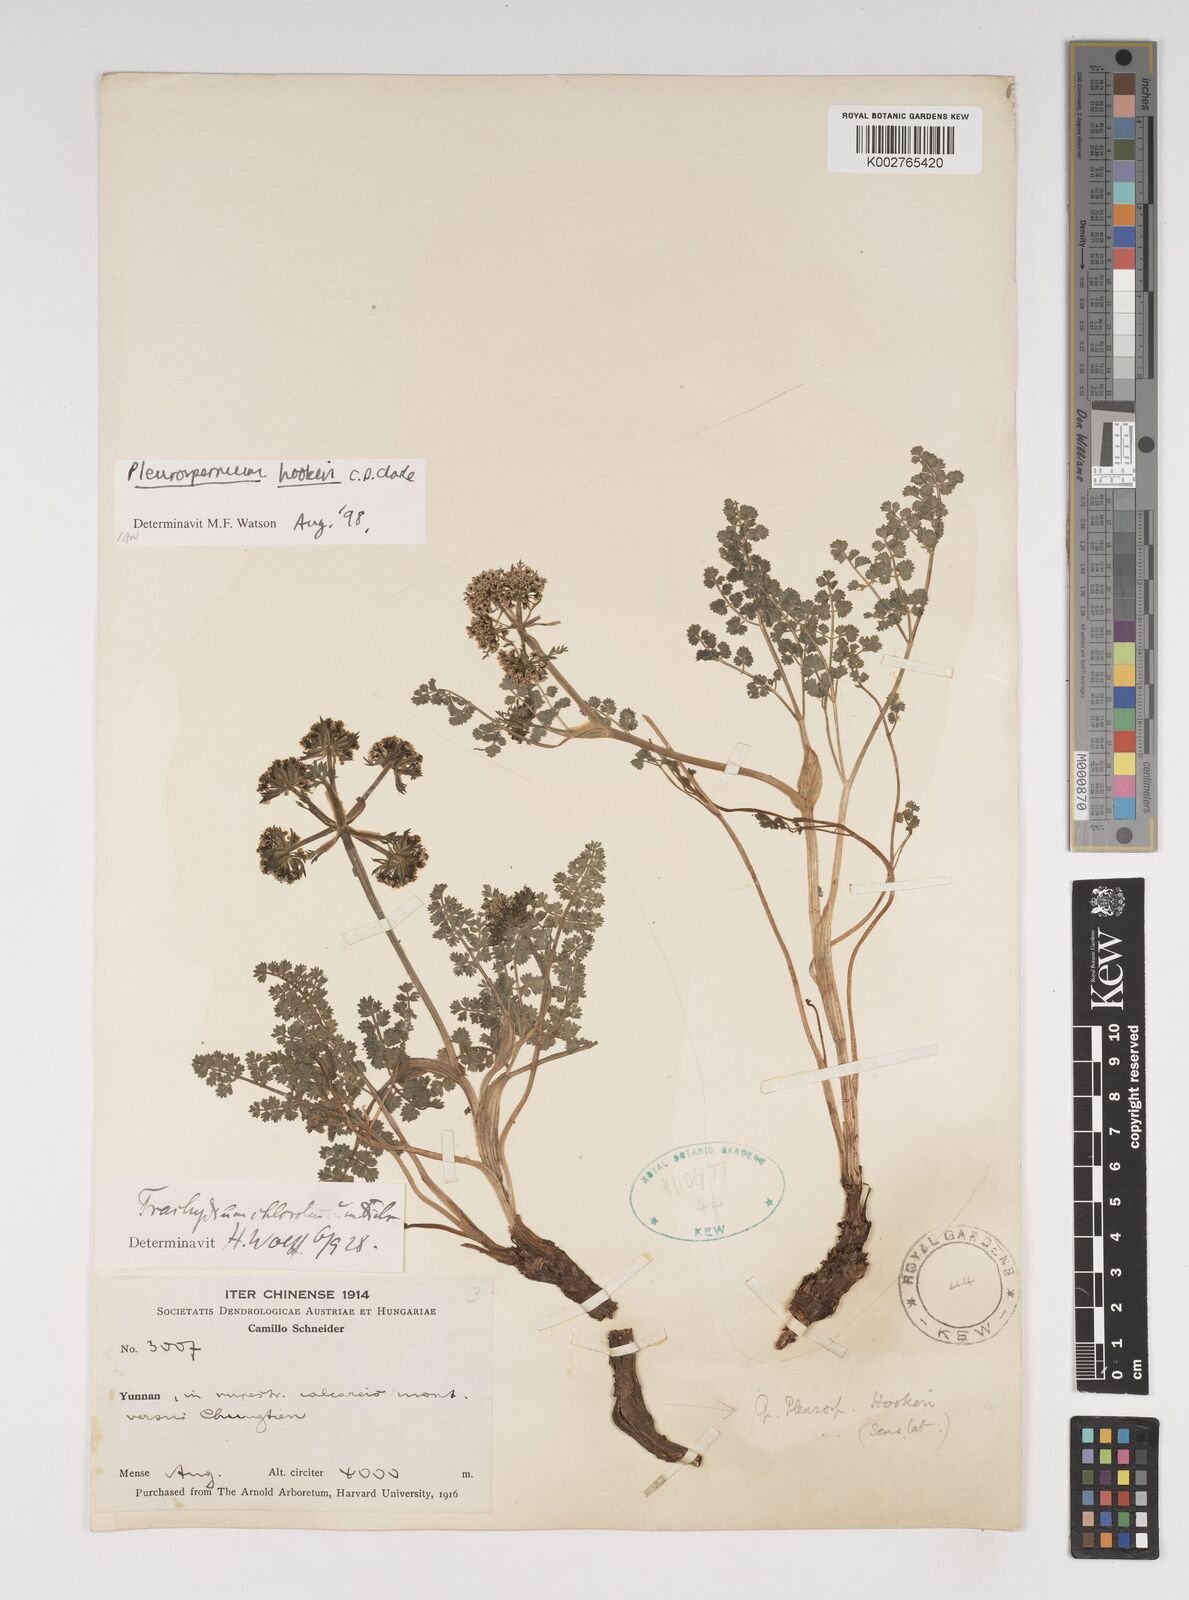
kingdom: Plantae
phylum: Tracheophyta
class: Magnoliopsida
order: Apiales
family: Apiaceae
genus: Pleurospermum
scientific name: Pleurospermum hookeri
